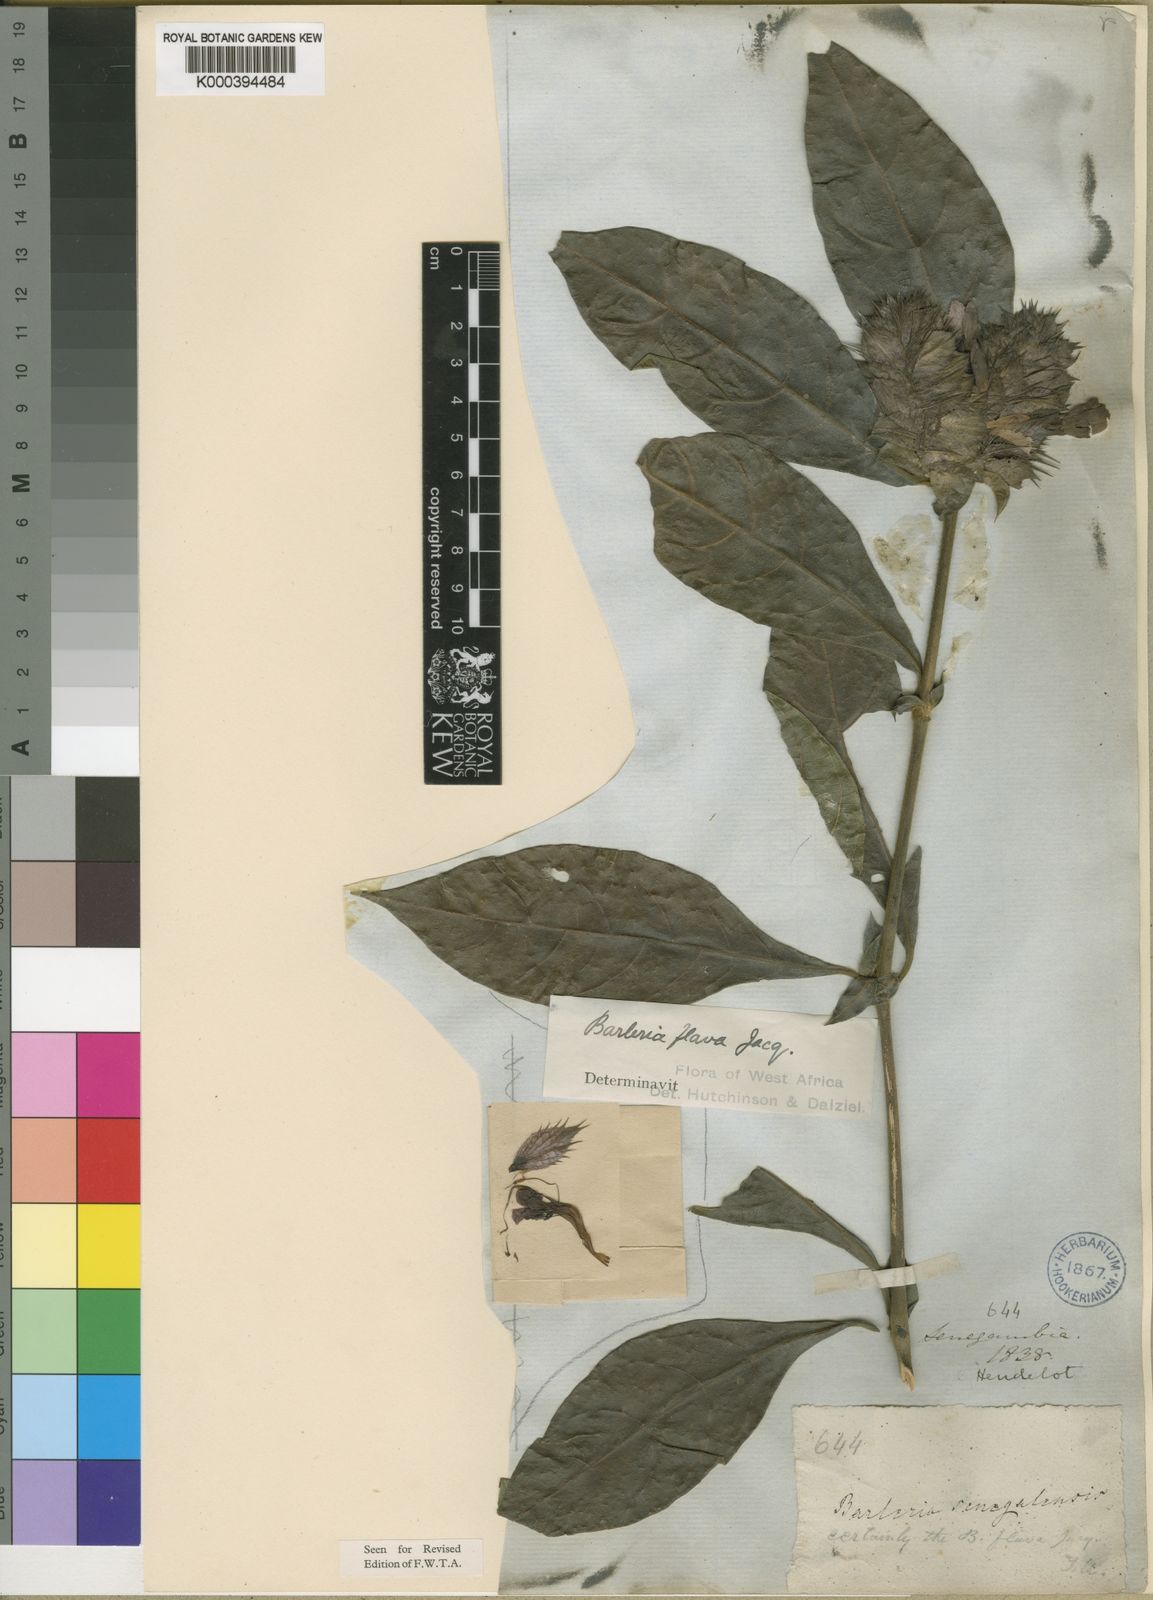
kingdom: Plantae
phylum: Tracheophyta
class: Magnoliopsida
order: Lamiales
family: Acanthaceae
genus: Barleria
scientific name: Barleria oenotheroides
